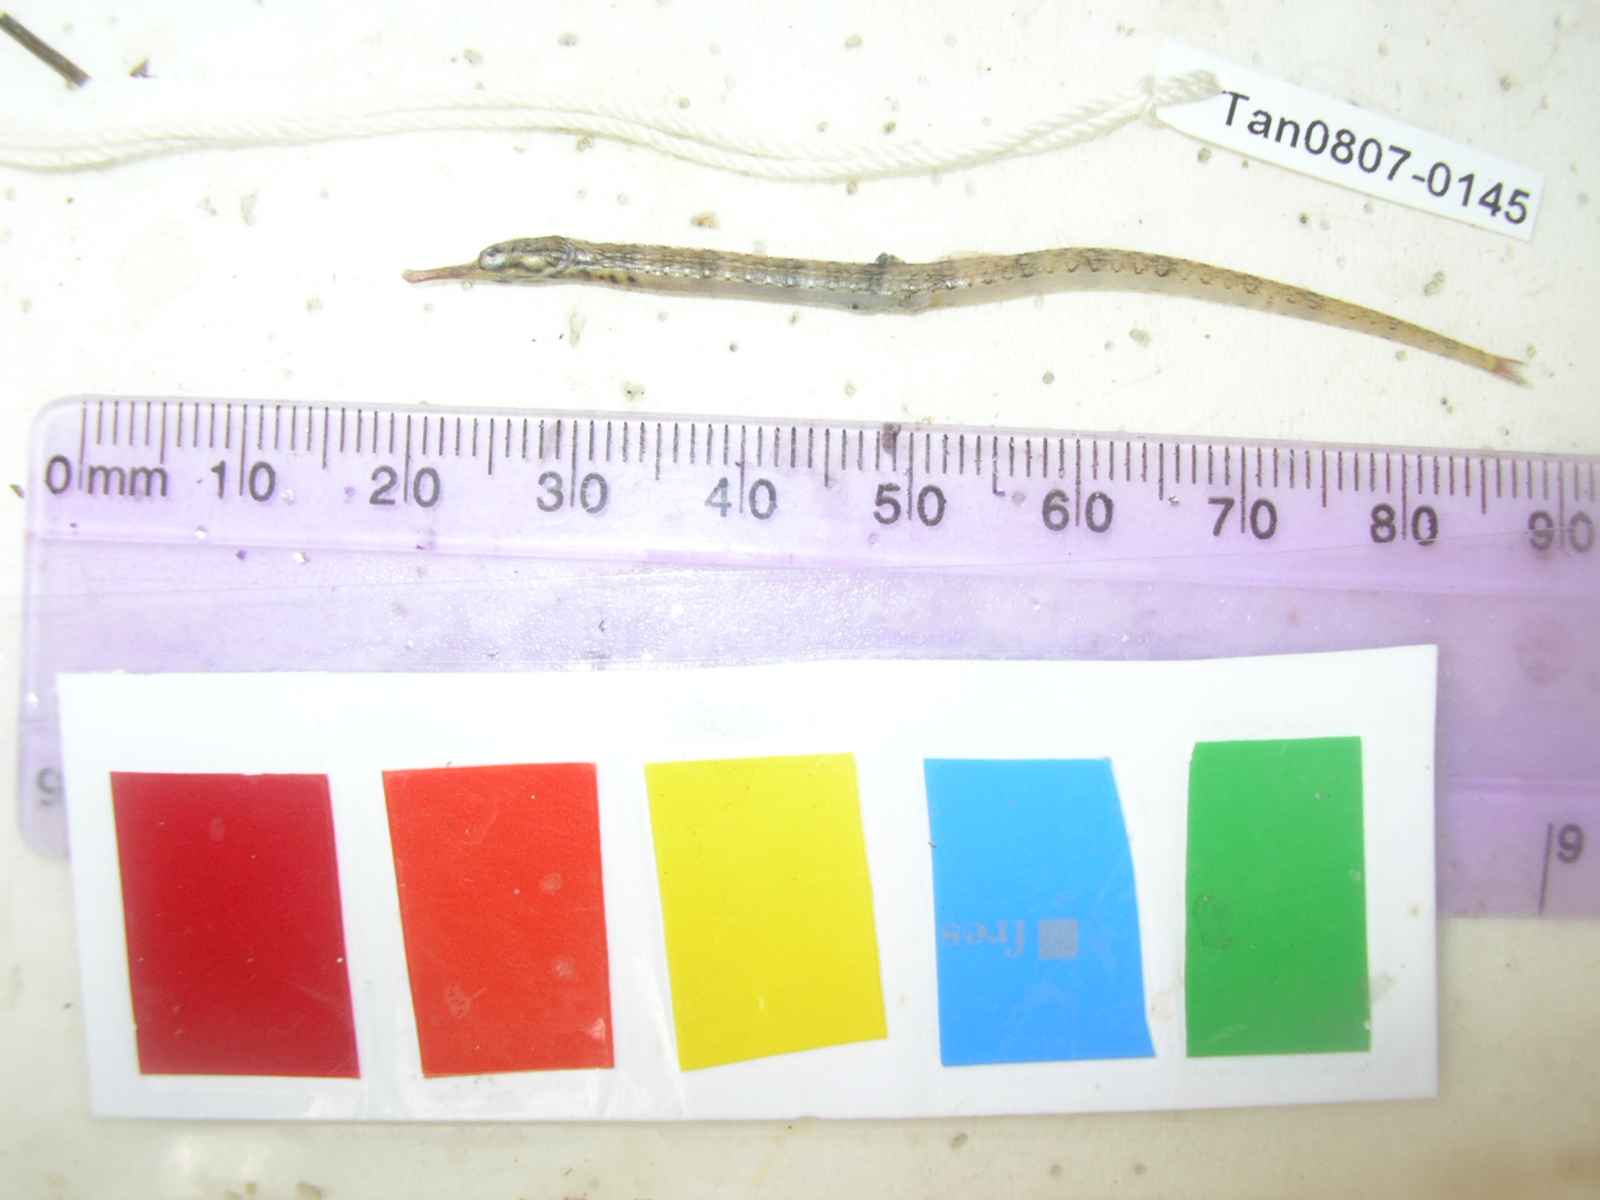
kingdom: Animalia
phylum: Chordata
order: Syngnathiformes
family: Syngnathidae
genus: Corythoichthys
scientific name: Corythoichthys intestinalis
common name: Australian banded pipefish
